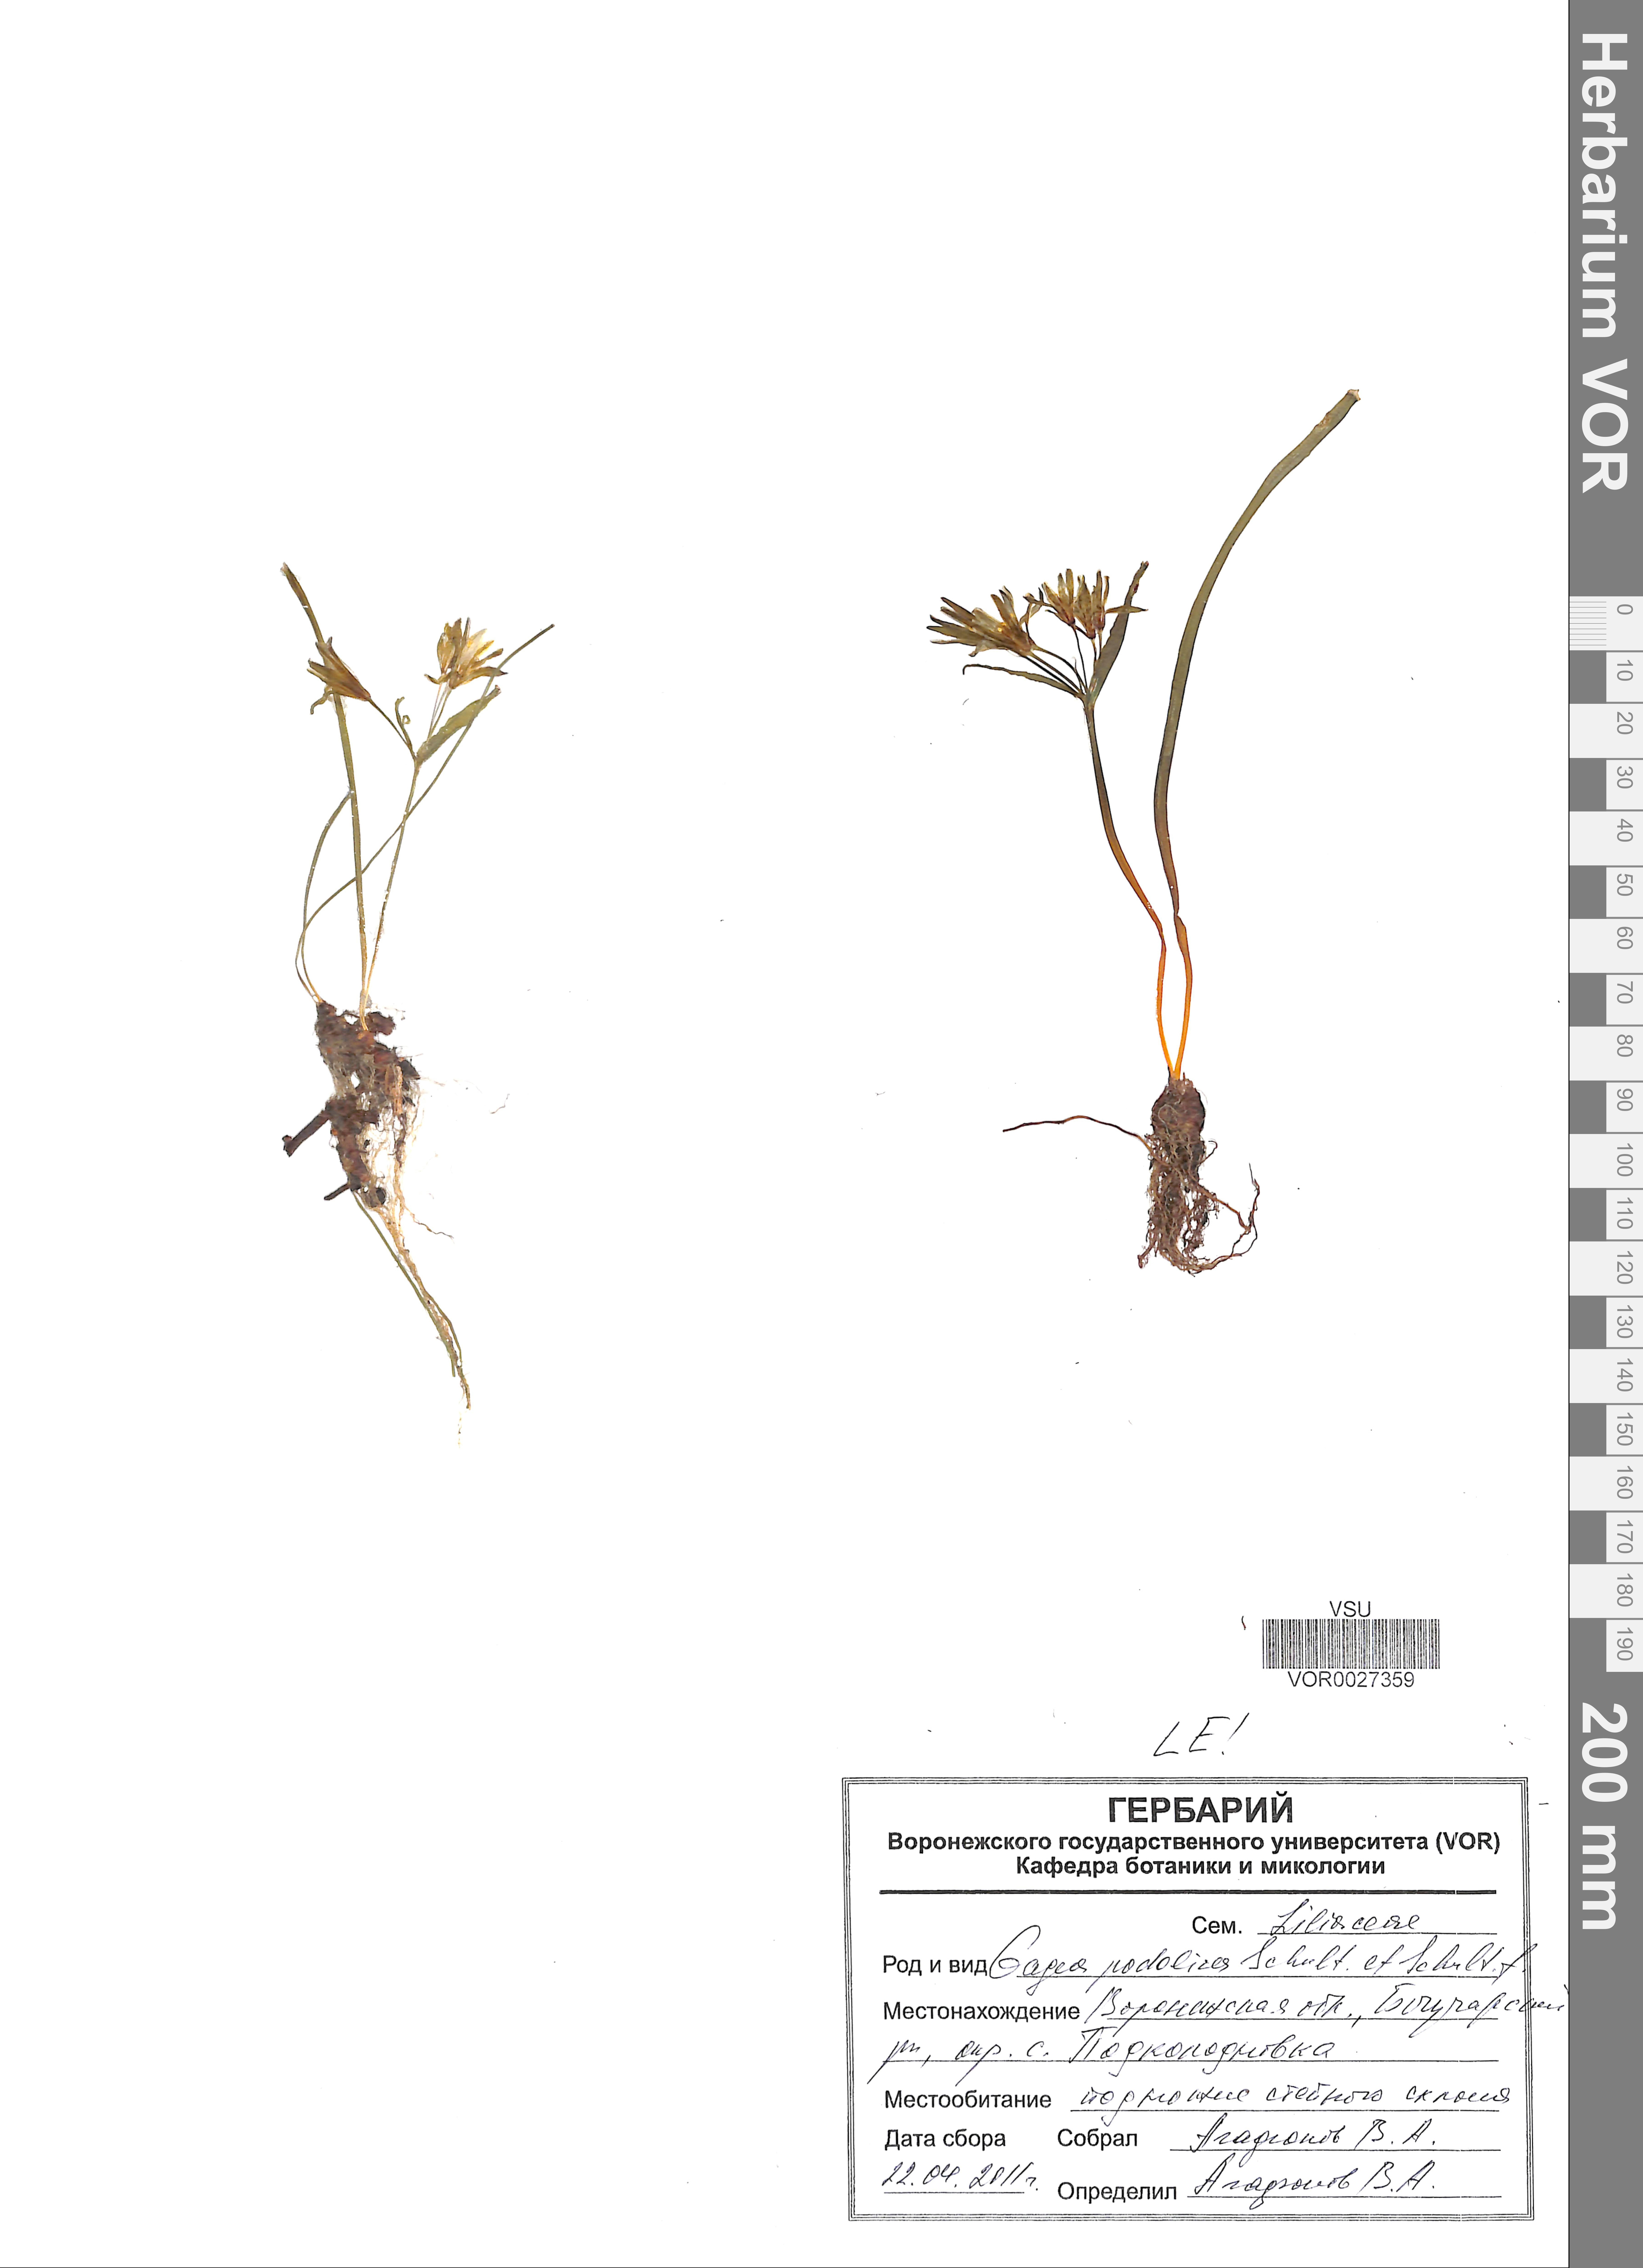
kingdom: Plantae
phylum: Tracheophyta
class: Liliopsida
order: Liliales
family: Liliaceae
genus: Gagea
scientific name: Gagea podolica
